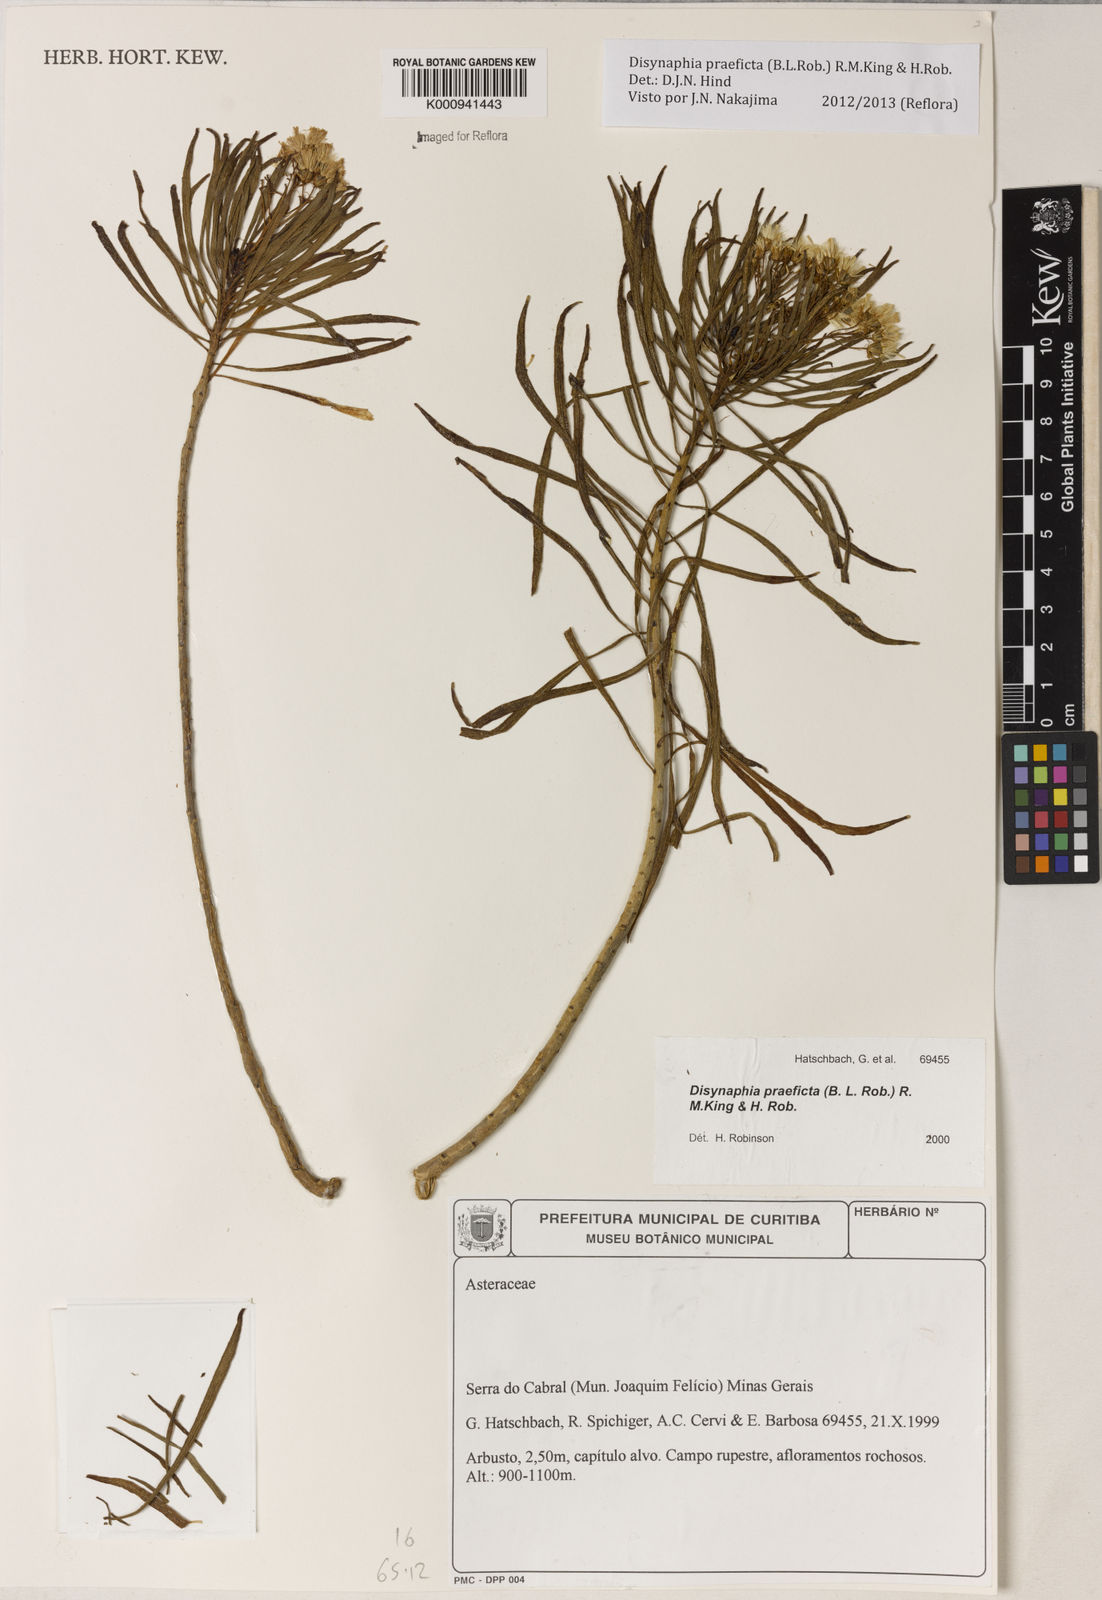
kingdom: Plantae
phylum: Tracheophyta
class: Magnoliopsida
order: Asterales
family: Asteraceae
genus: Disynaphia
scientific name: Disynaphia praeficta
